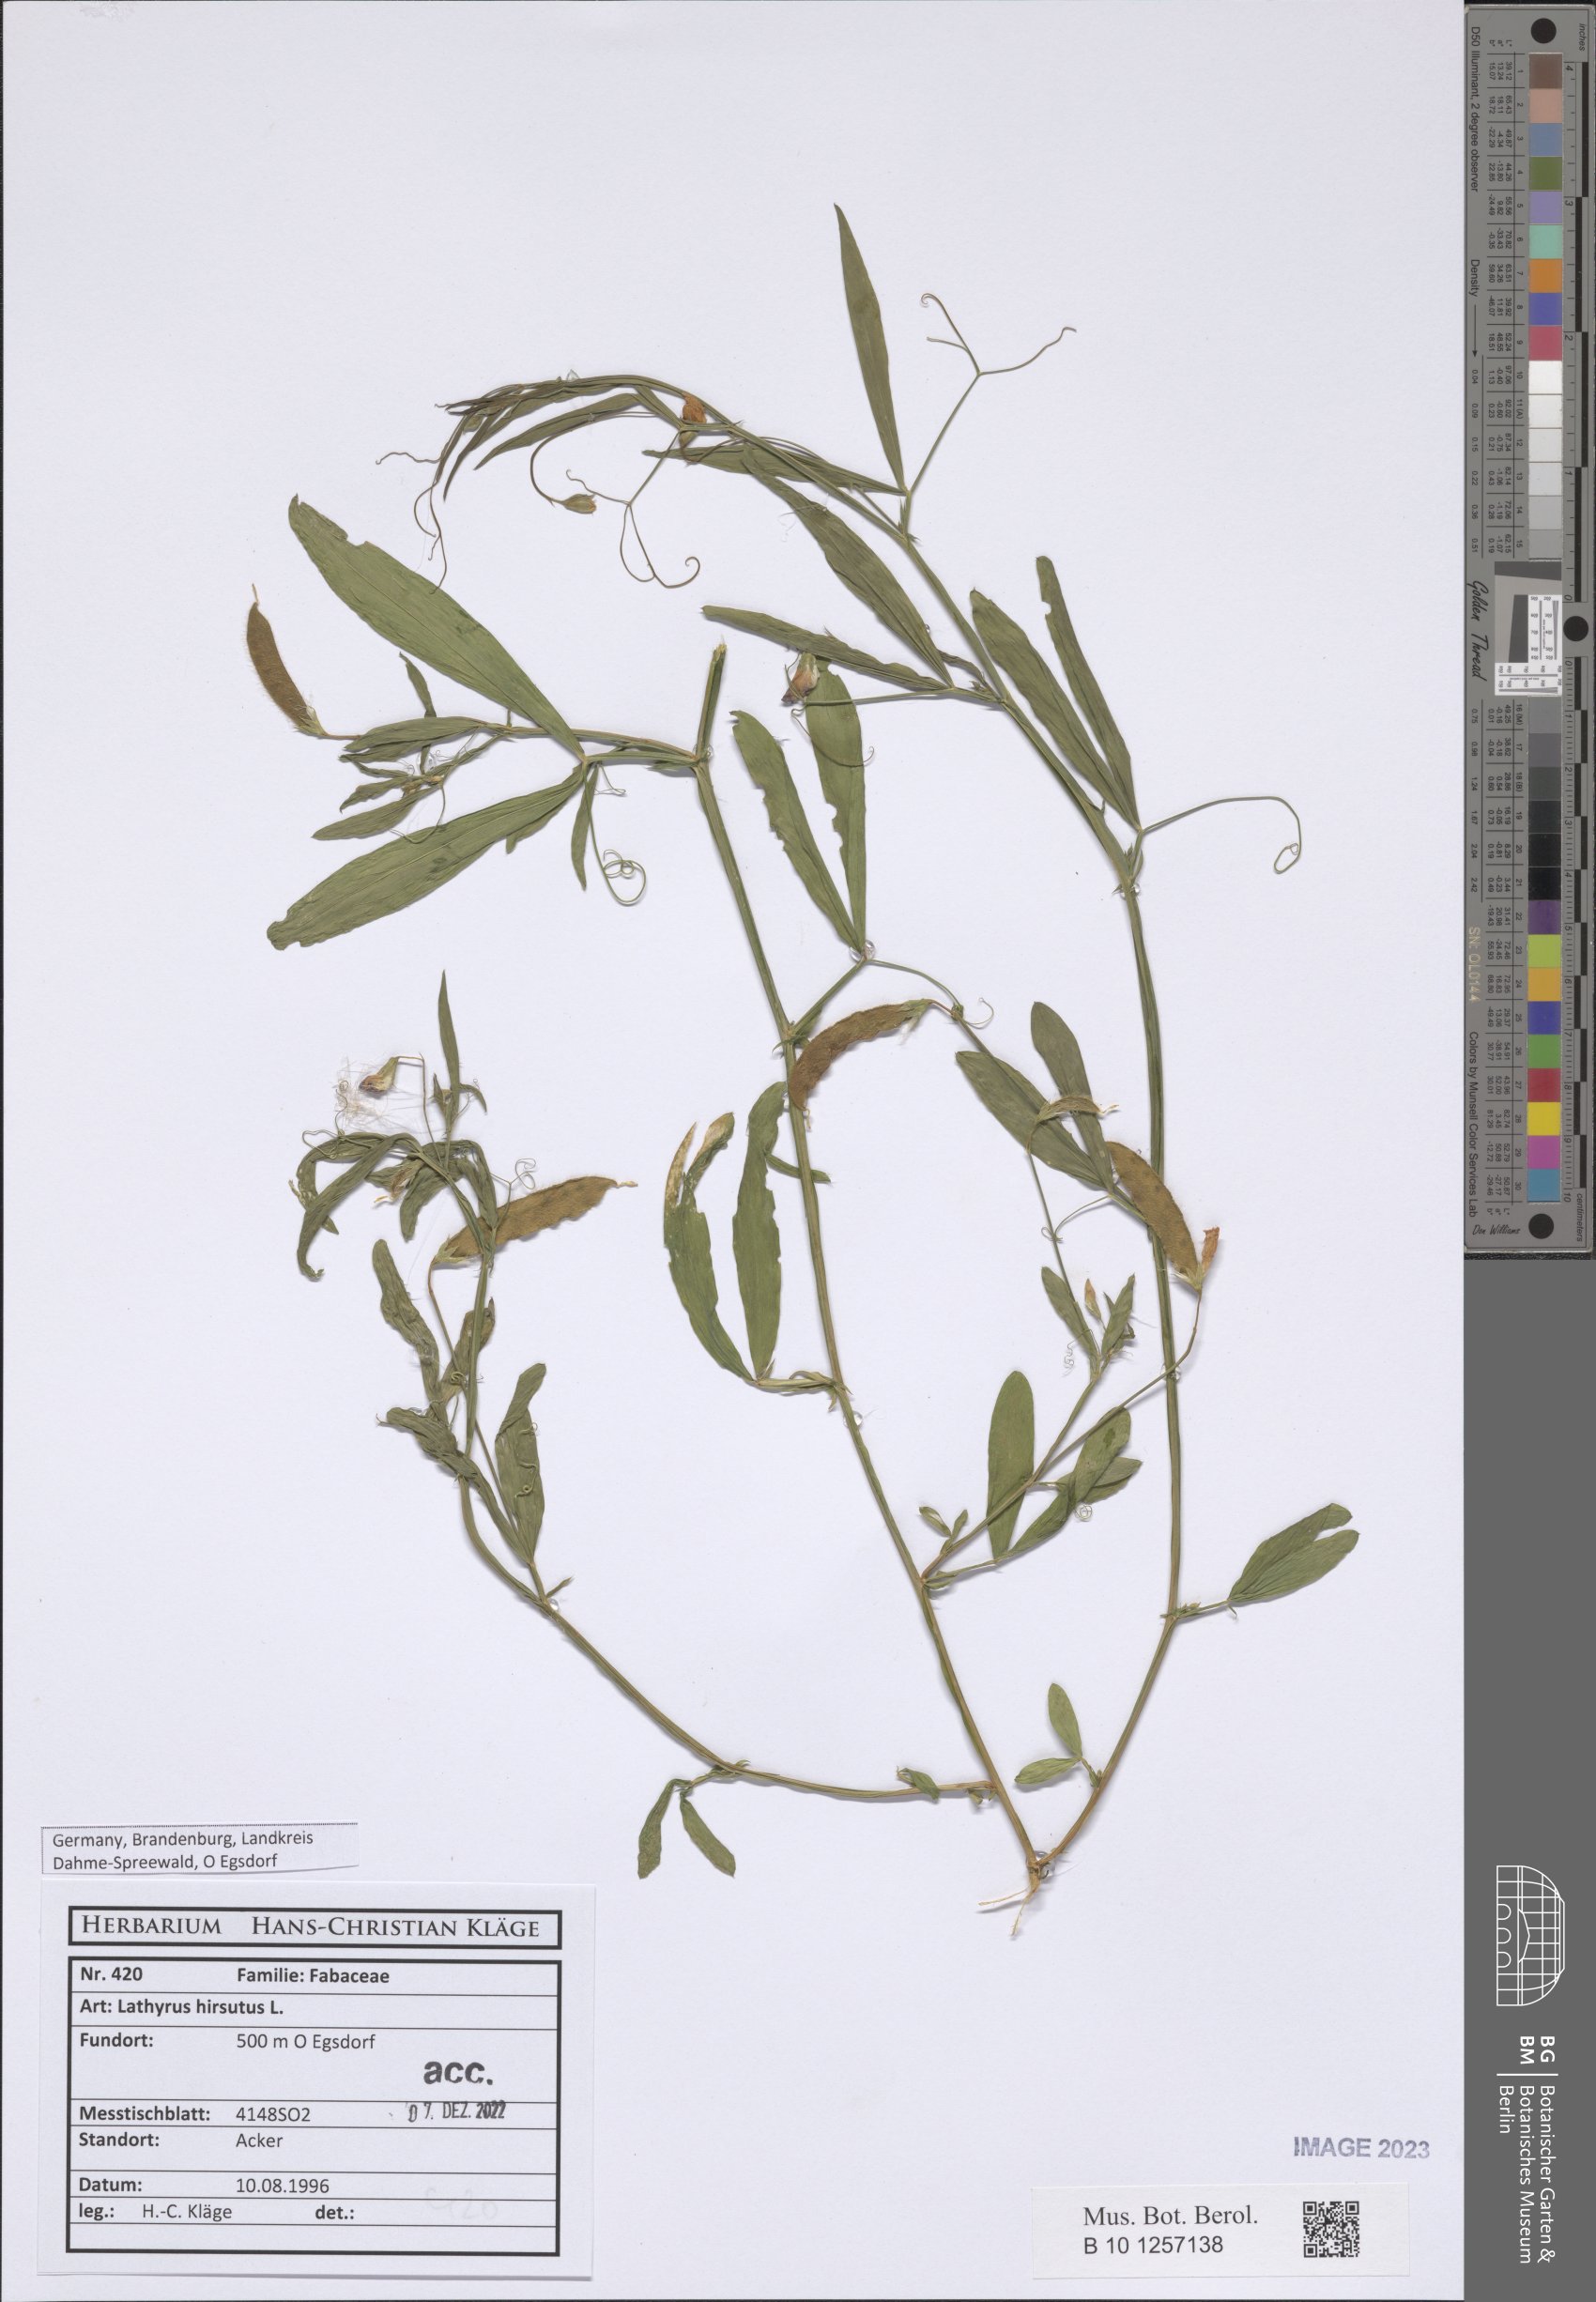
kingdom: Plantae
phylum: Tracheophyta
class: Magnoliopsida
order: Fabales
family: Fabaceae
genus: Lathyrus
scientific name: Lathyrus hirsutus
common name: Hairy vetchling
